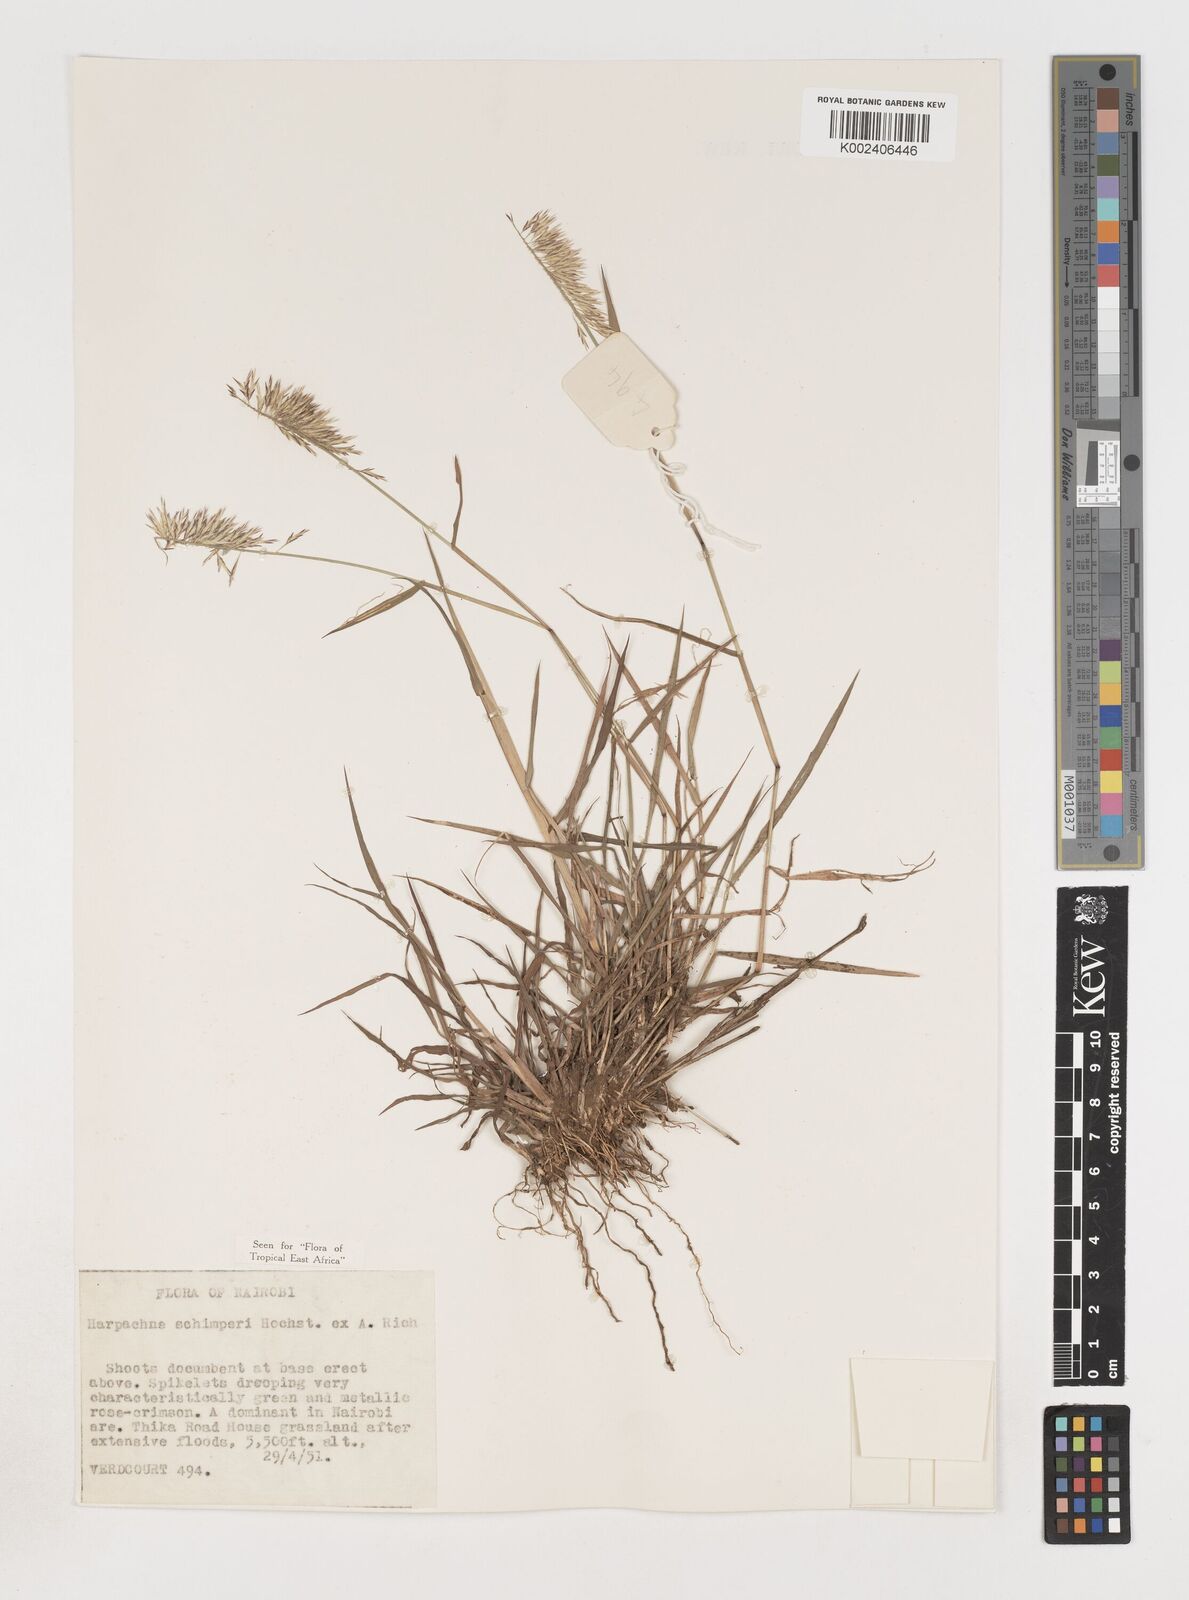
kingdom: Plantae
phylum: Tracheophyta
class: Liliopsida
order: Poales
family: Poaceae
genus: Harpachne
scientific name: Harpachne schimperi
